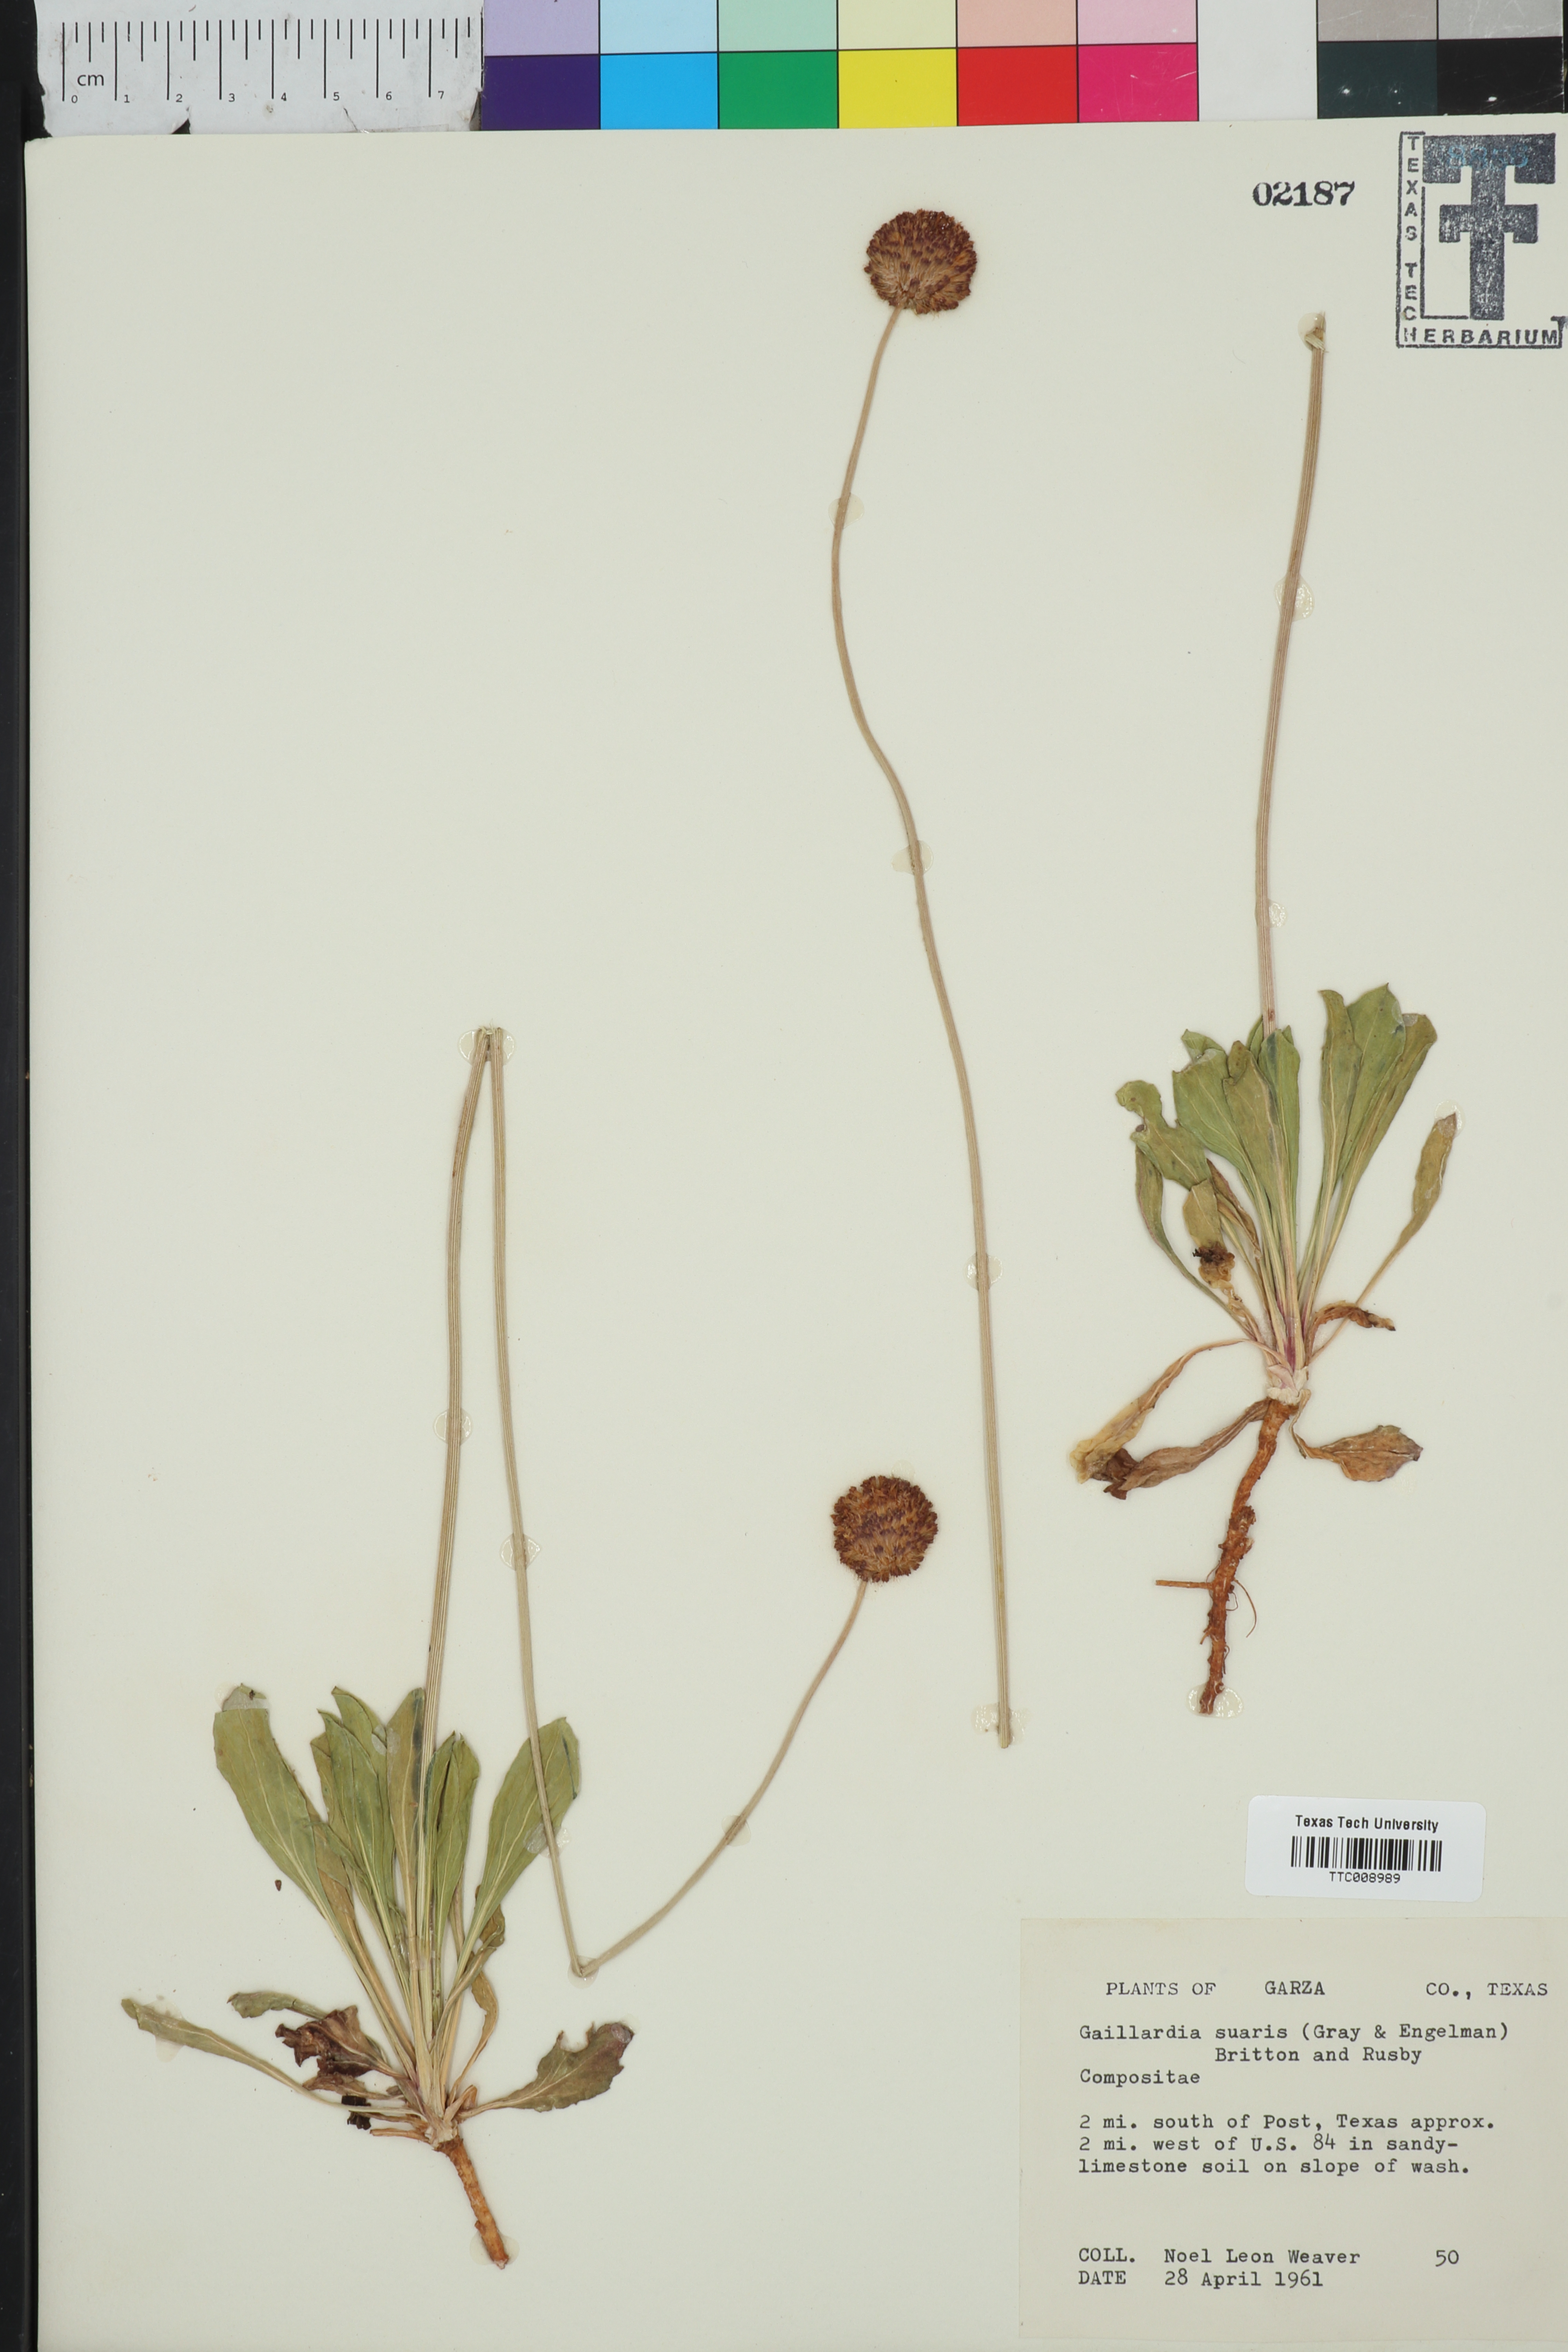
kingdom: Plantae
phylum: Tracheophyta
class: Magnoliopsida
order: Asterales
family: Asteraceae
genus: Gaillardia
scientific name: Gaillardia suavis
